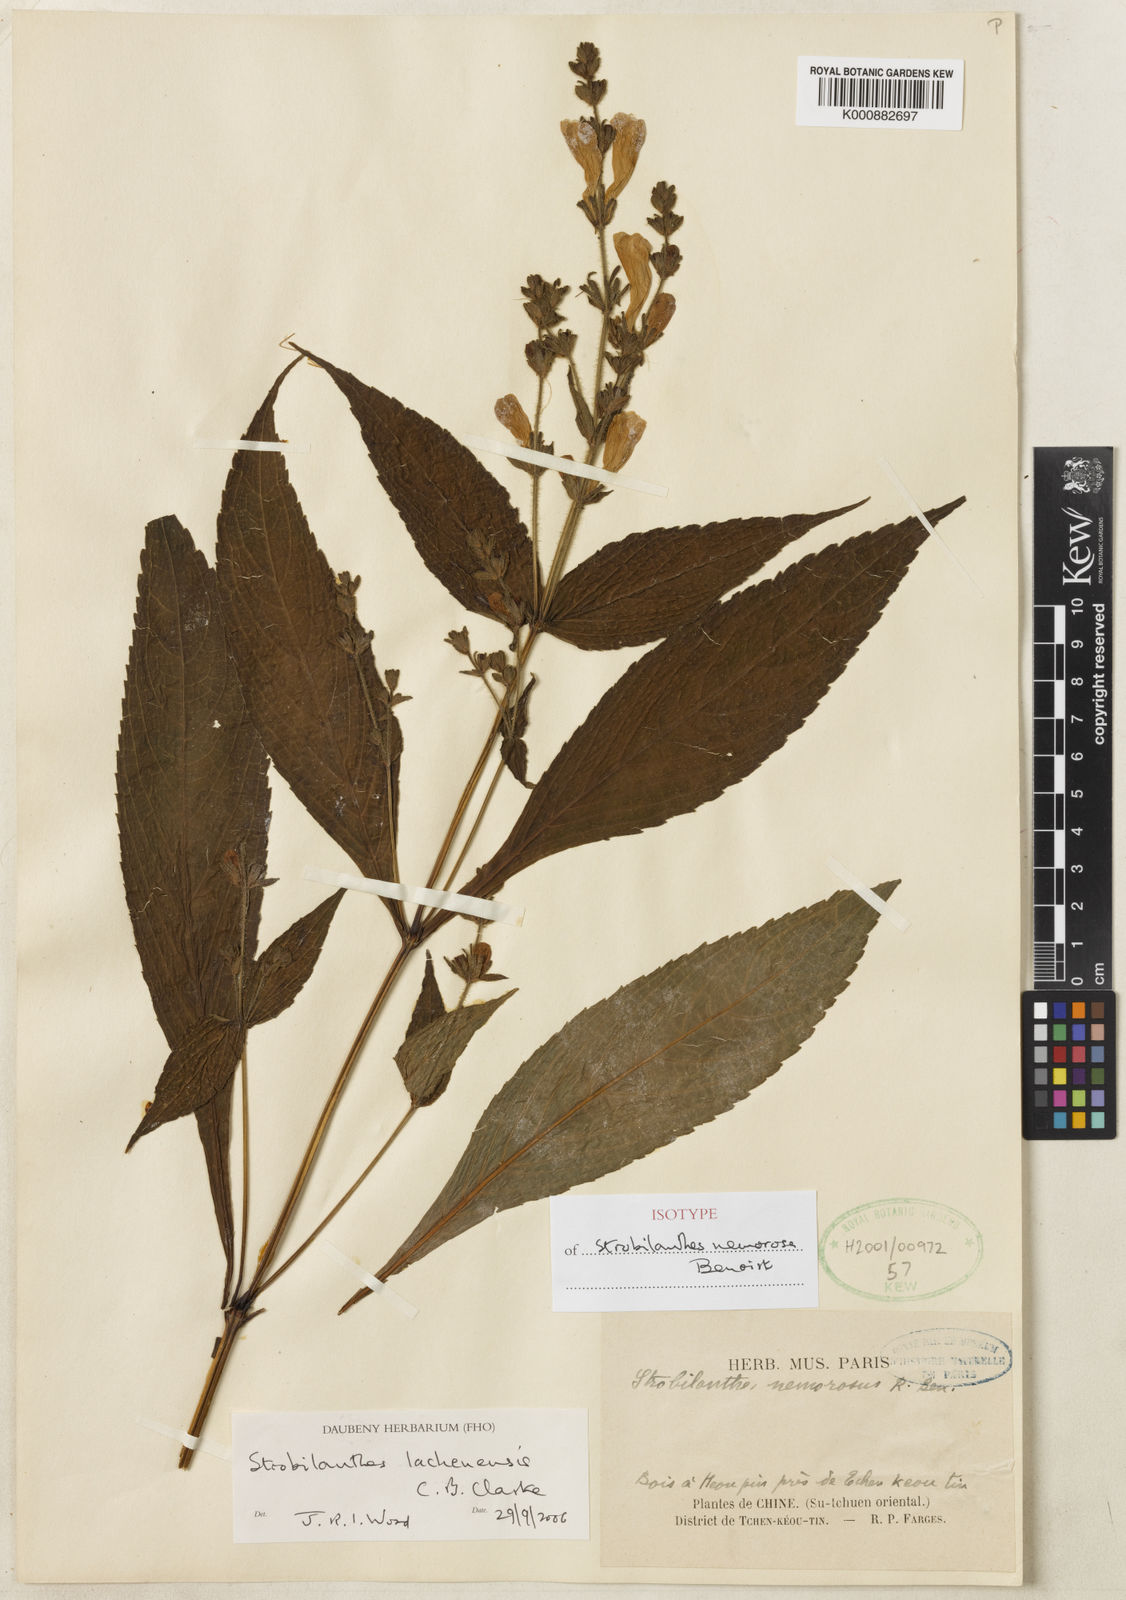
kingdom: Plantae
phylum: Tracheophyta
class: Magnoliopsida
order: Lamiales
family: Acanthaceae
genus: Strobilanthes
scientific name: Strobilanthes lachenensis
